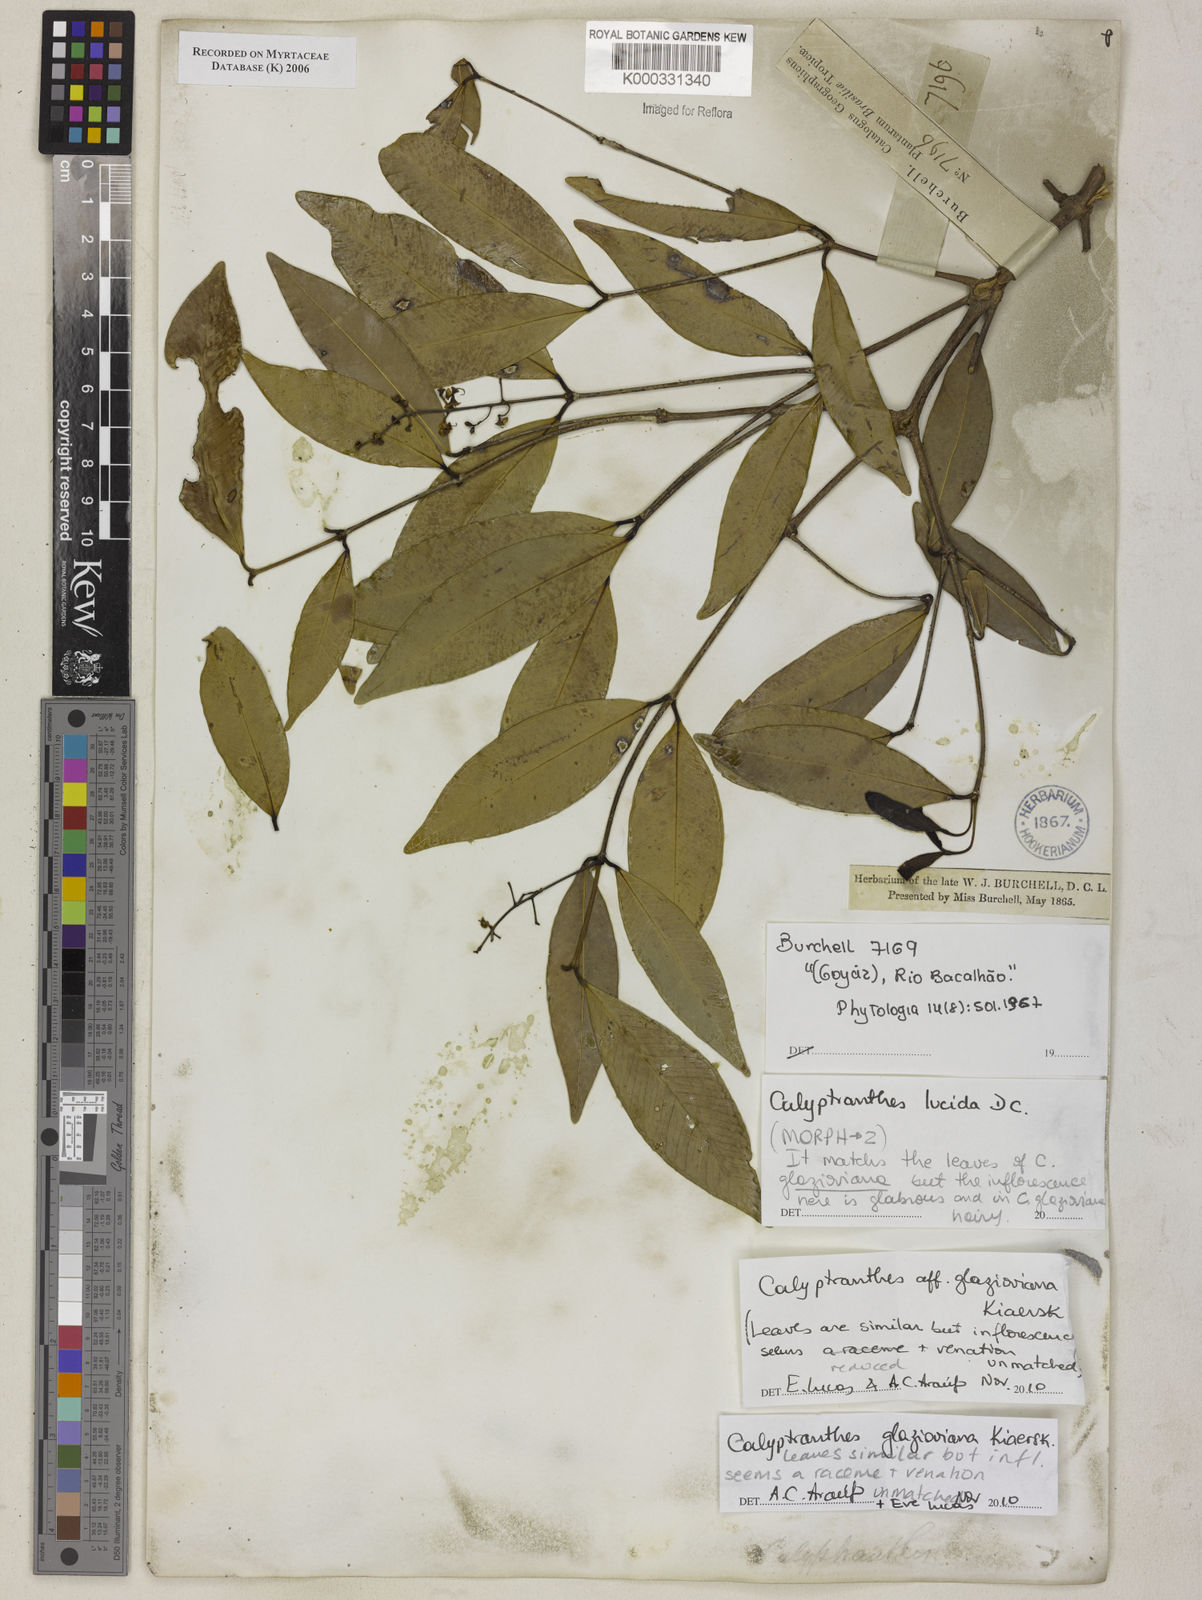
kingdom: Plantae
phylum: Tracheophyta
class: Magnoliopsida
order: Myrtales
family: Myrtaceae
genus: Calyptranthes
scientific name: Calyptranthes
